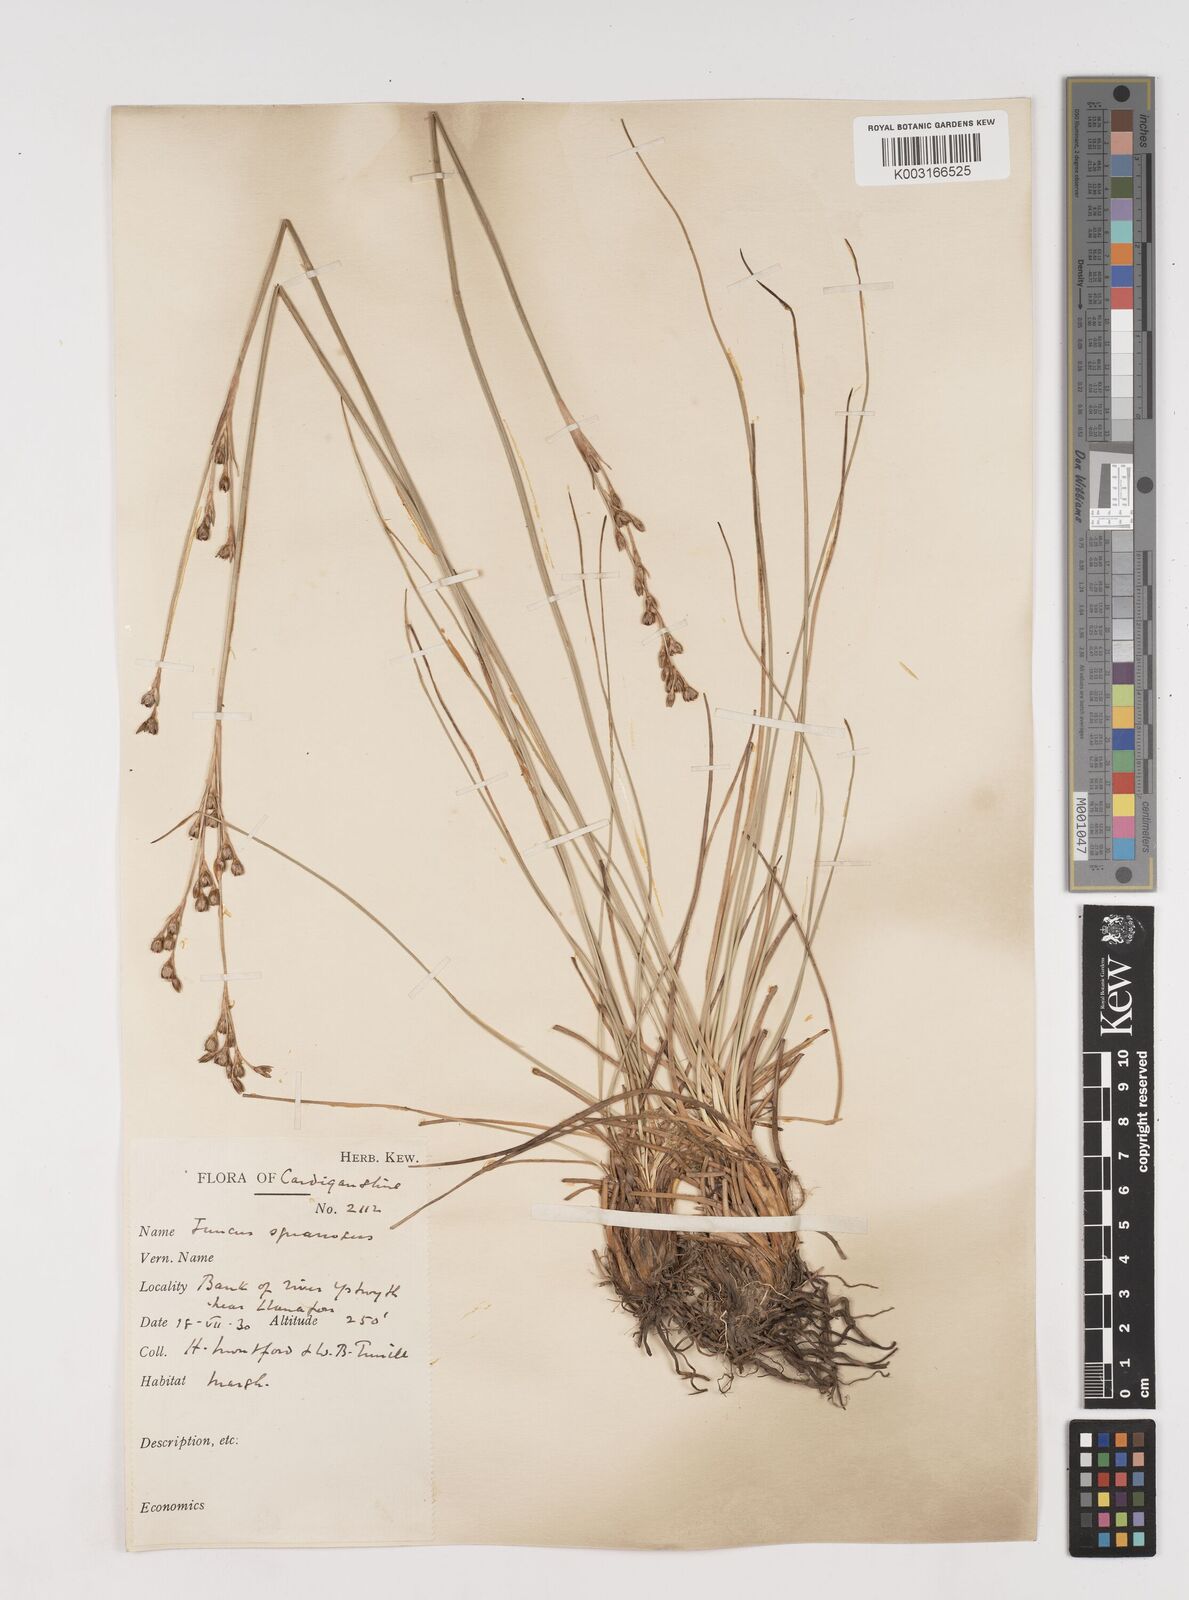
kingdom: Plantae
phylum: Tracheophyta
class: Liliopsida
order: Poales
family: Juncaceae
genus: Juncus
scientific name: Juncus squarrosus
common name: Heath rush
